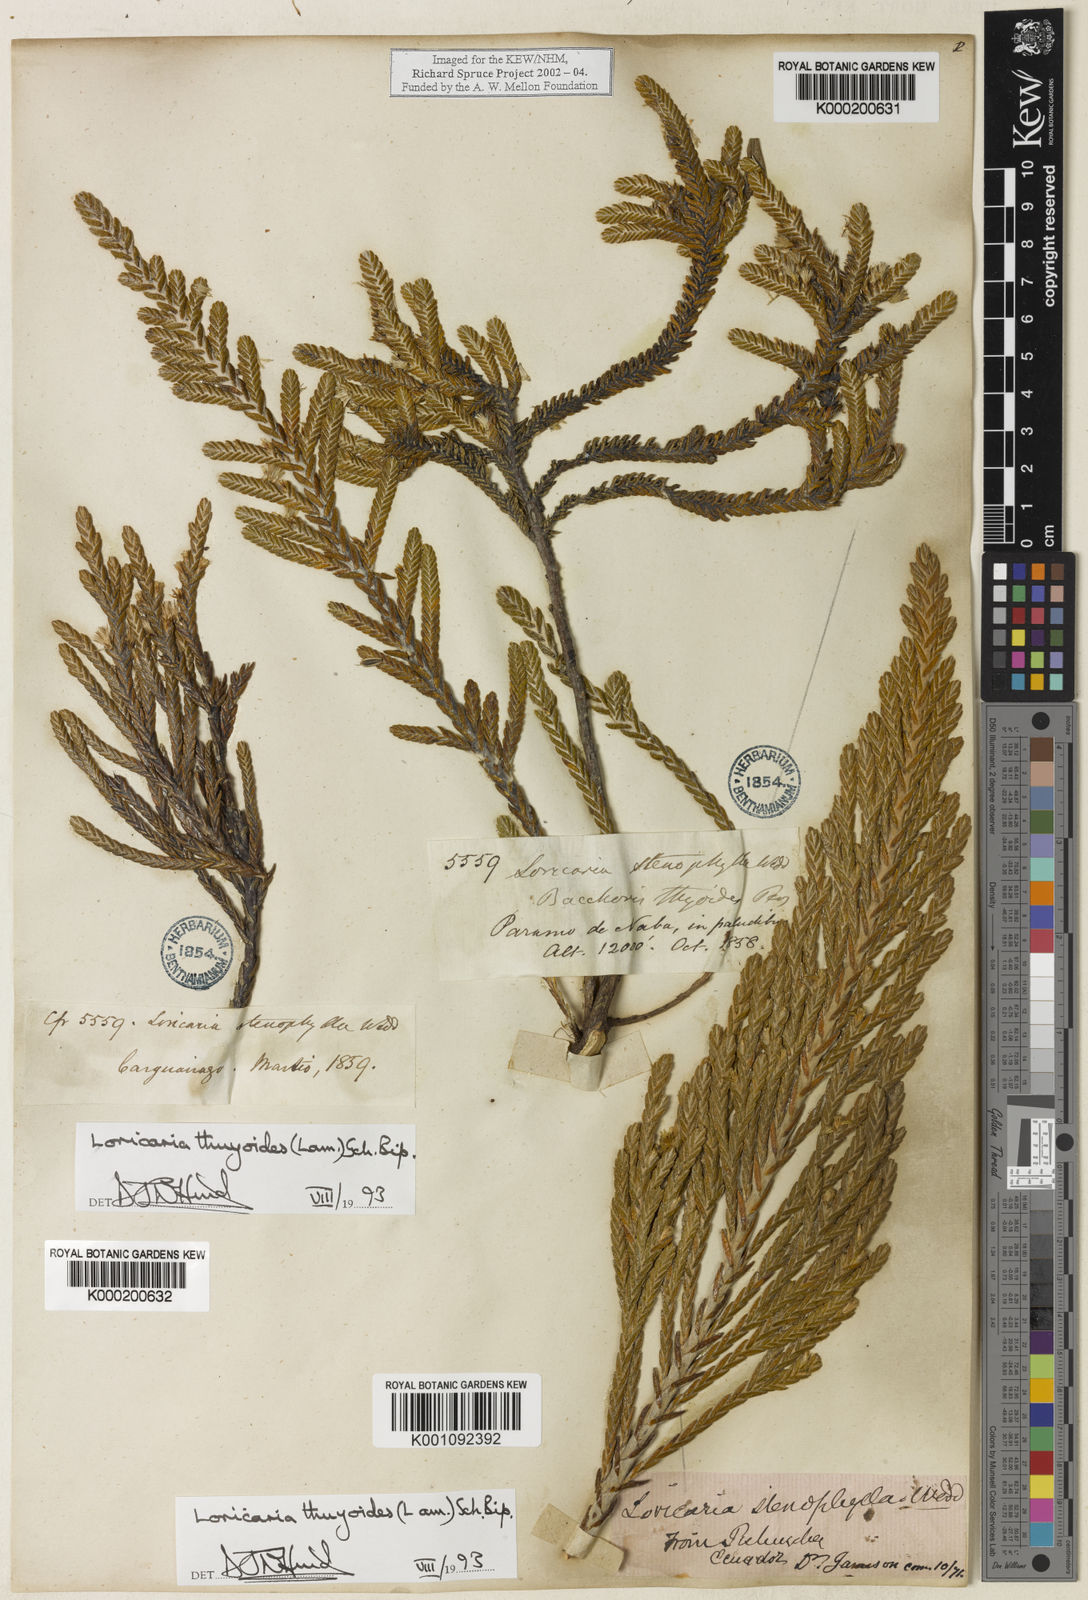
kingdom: Plantae
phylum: Tracheophyta
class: Magnoliopsida
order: Asterales
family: Asteraceae
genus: Andicolea
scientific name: Andicolea thuyoides
